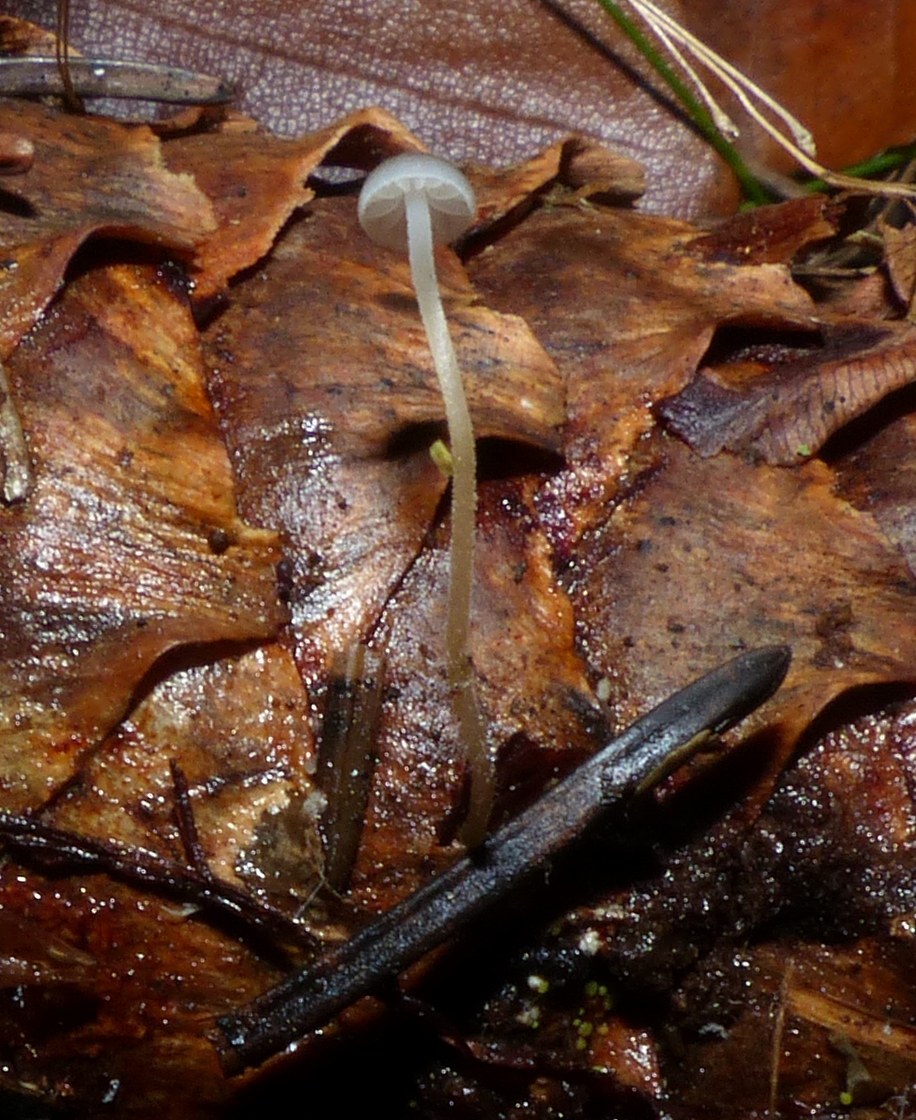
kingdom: Fungi
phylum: Basidiomycota
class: Agaricomycetes
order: Agaricales
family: Physalacriaceae
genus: Strobilurus
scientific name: Strobilurus esculentus
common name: gran-koglehat
